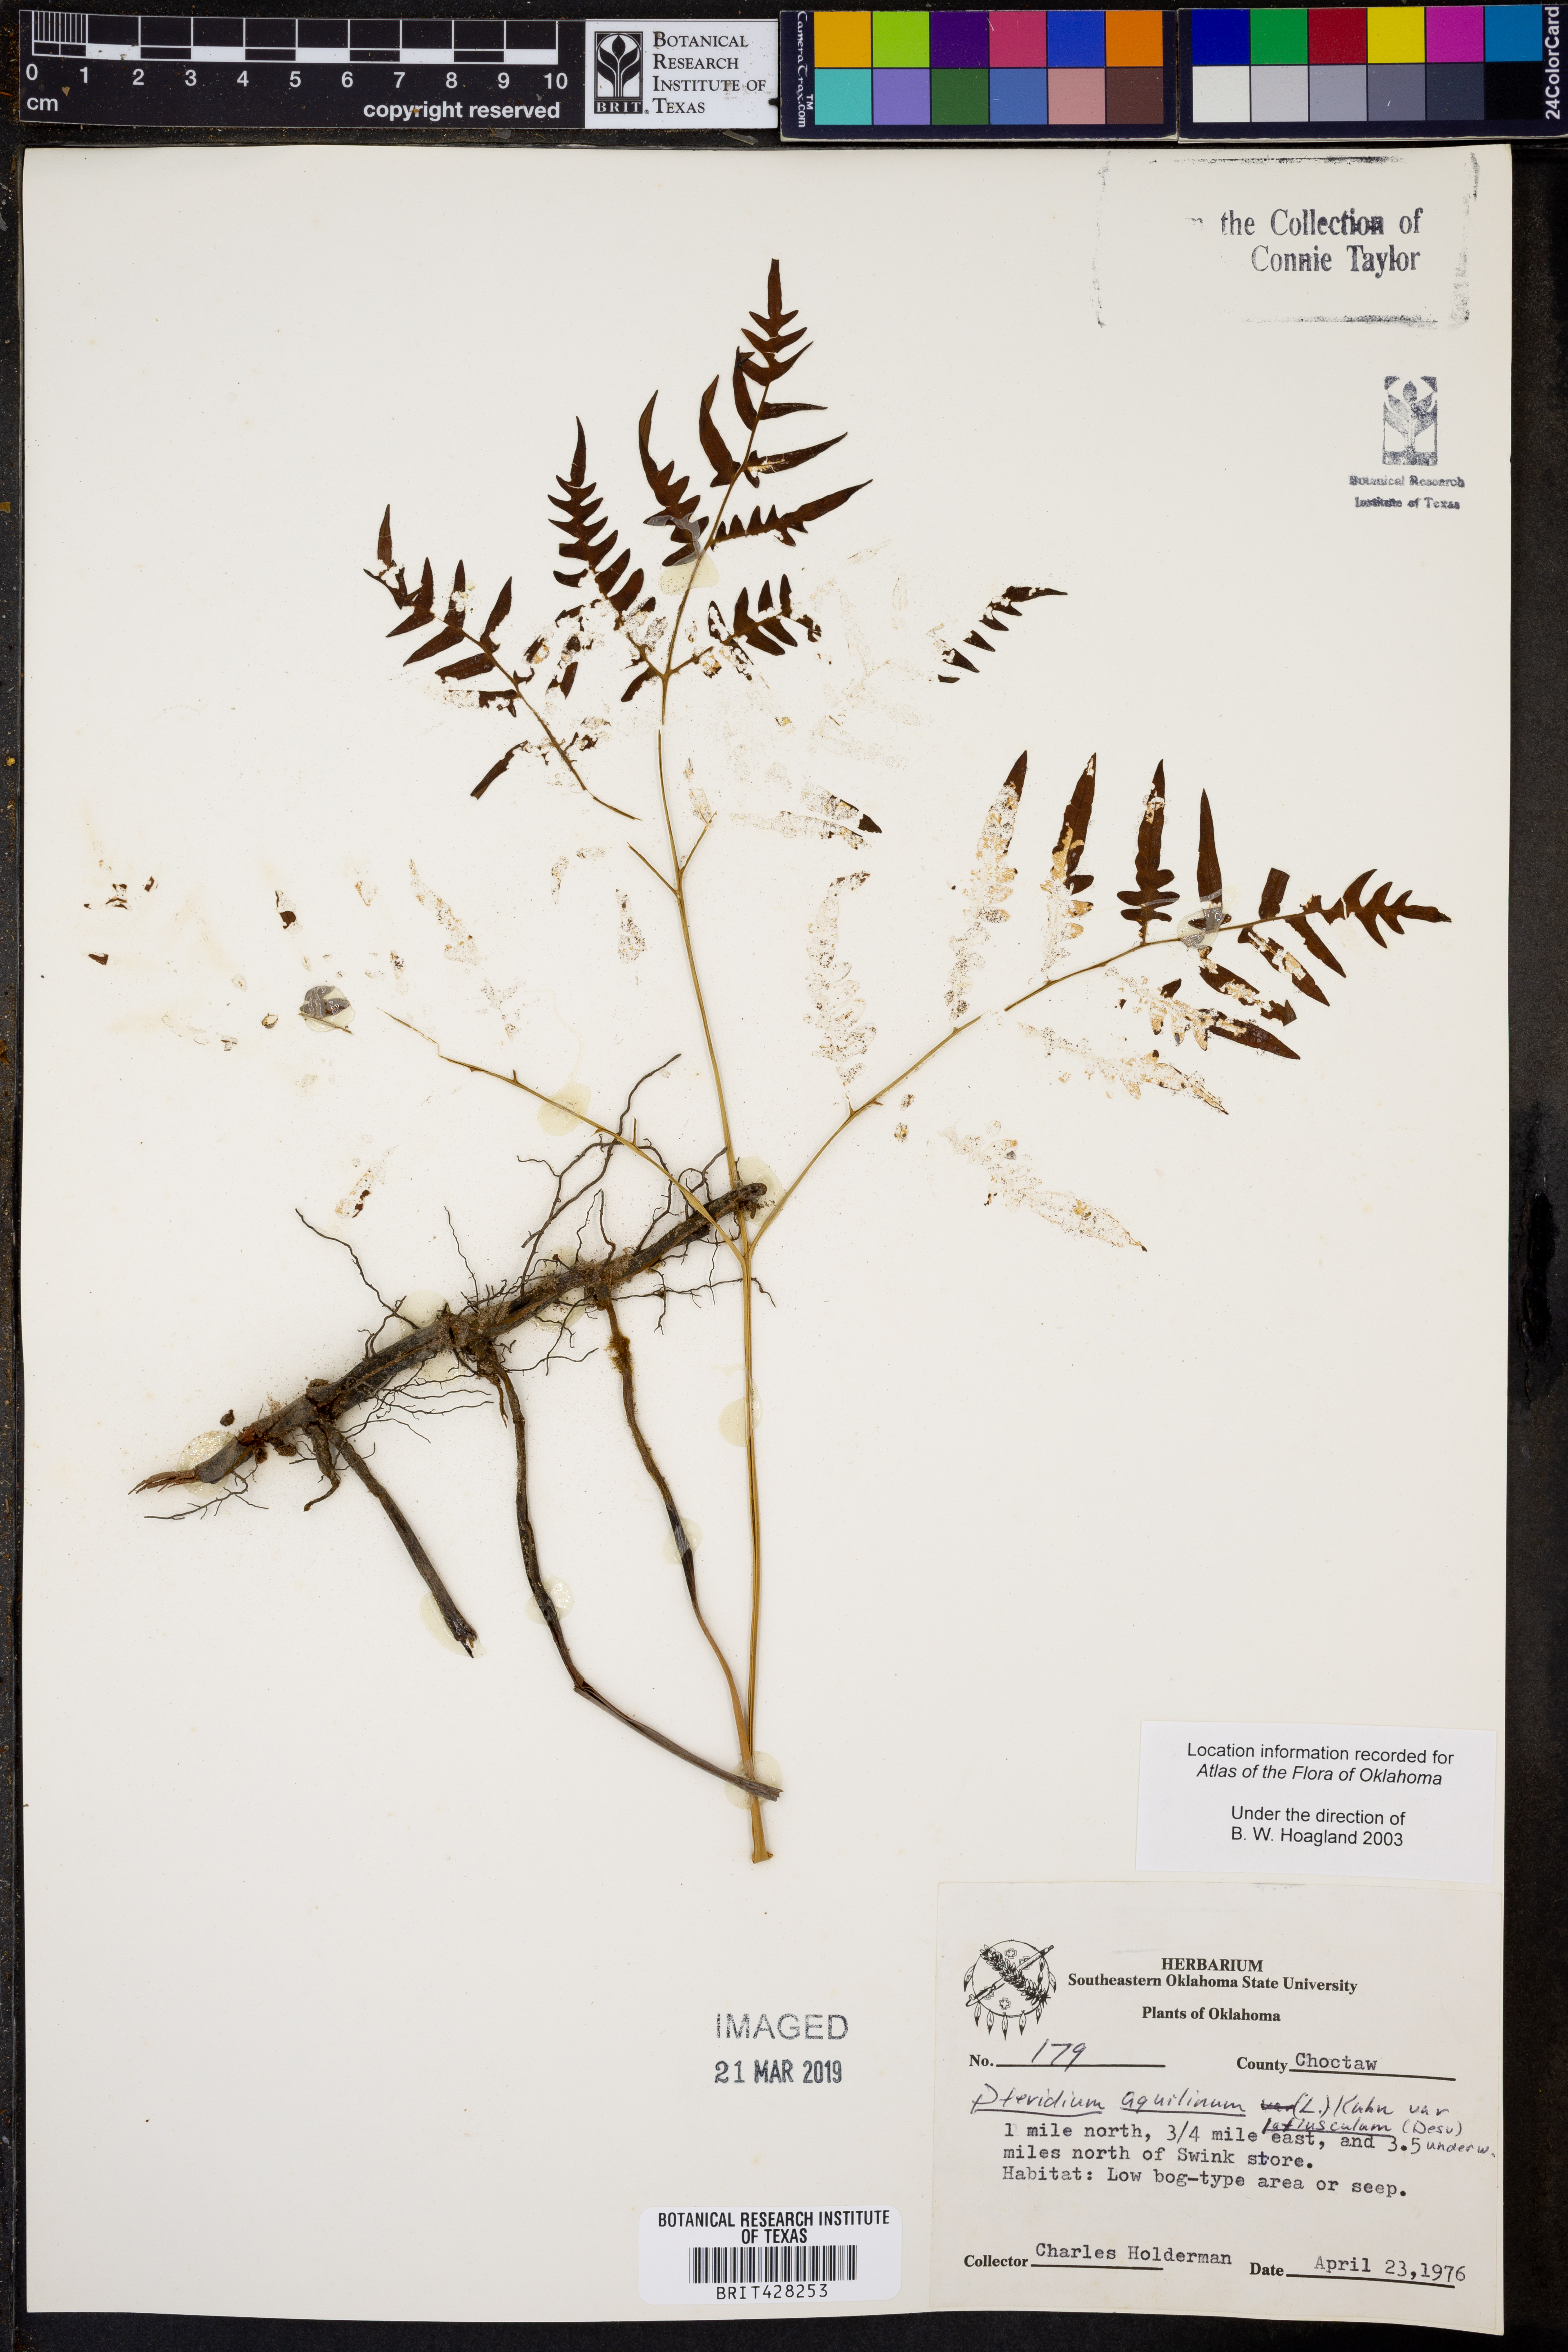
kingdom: Plantae
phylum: Tracheophyta
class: Polypodiopsida
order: Polypodiales
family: Dennstaedtiaceae
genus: Pteridium
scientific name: Pteridium aquilinum
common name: Bracken
